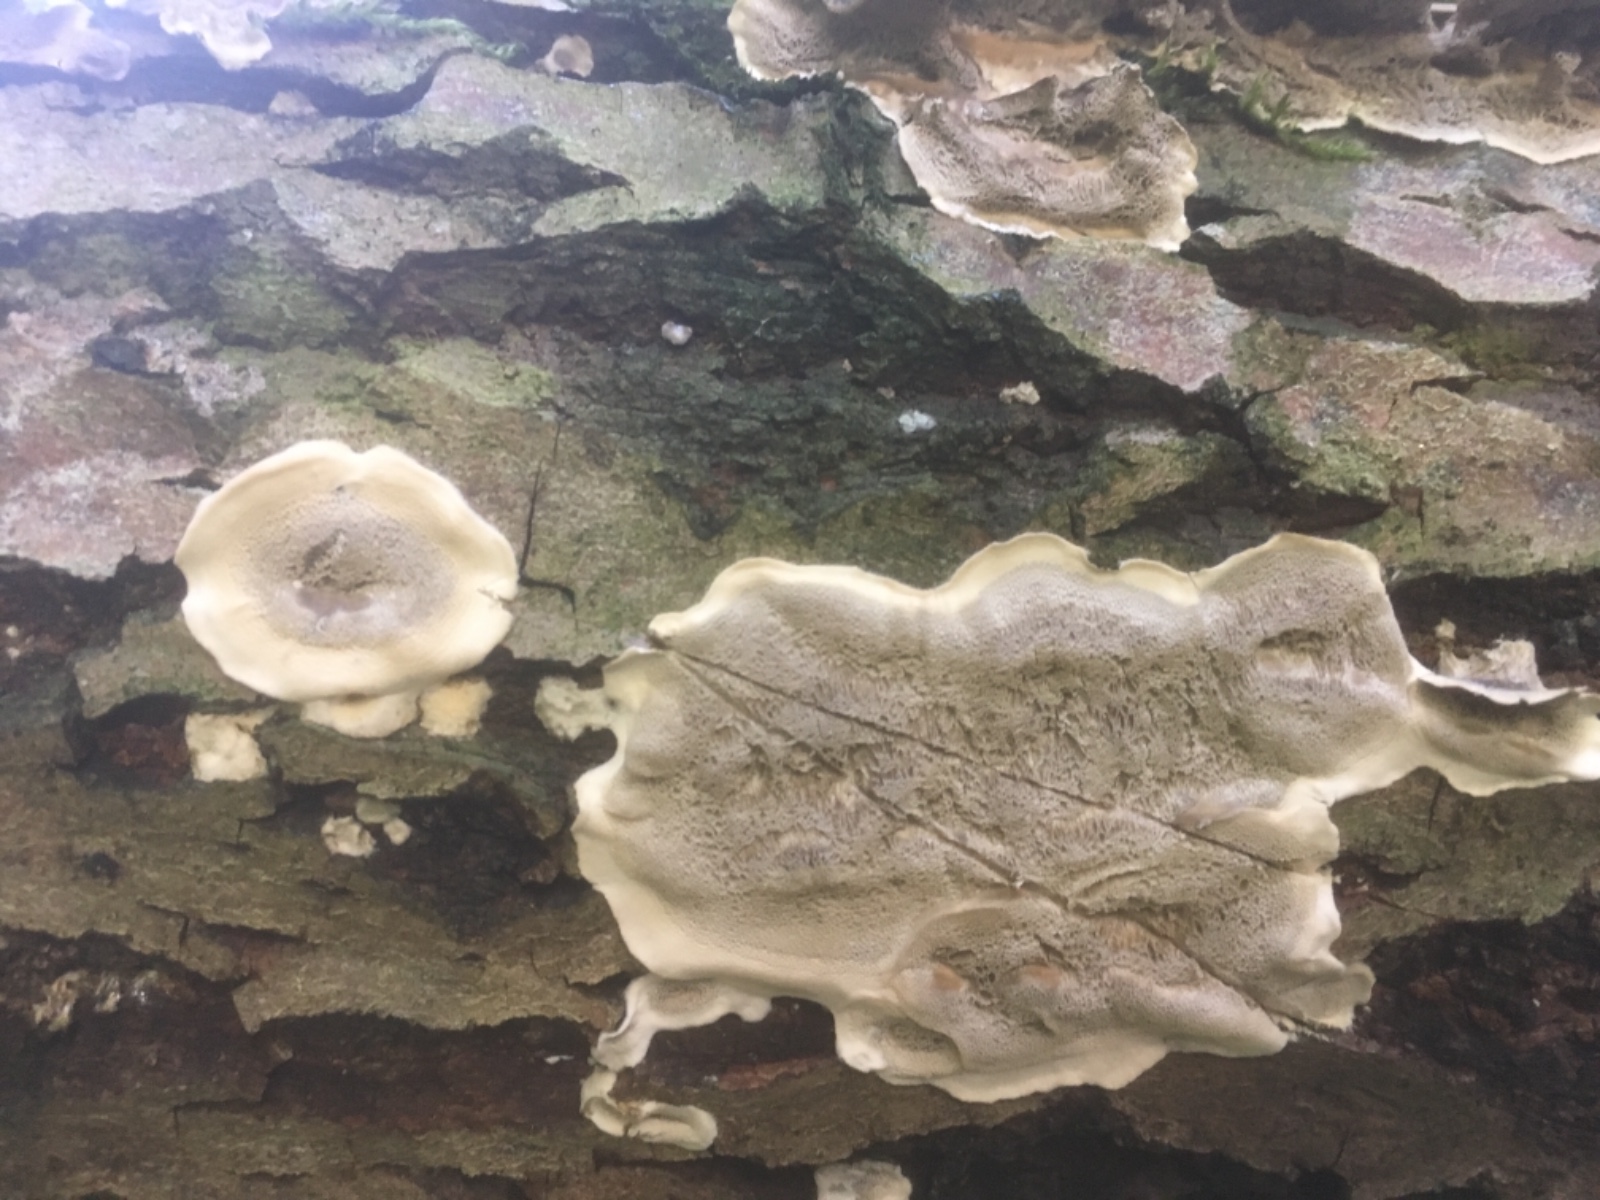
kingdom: Fungi
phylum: Basidiomycota
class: Agaricomycetes
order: Polyporales
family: Phanerochaetaceae
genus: Bjerkandera
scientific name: Bjerkandera adusta
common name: sveden sodporesvamp
